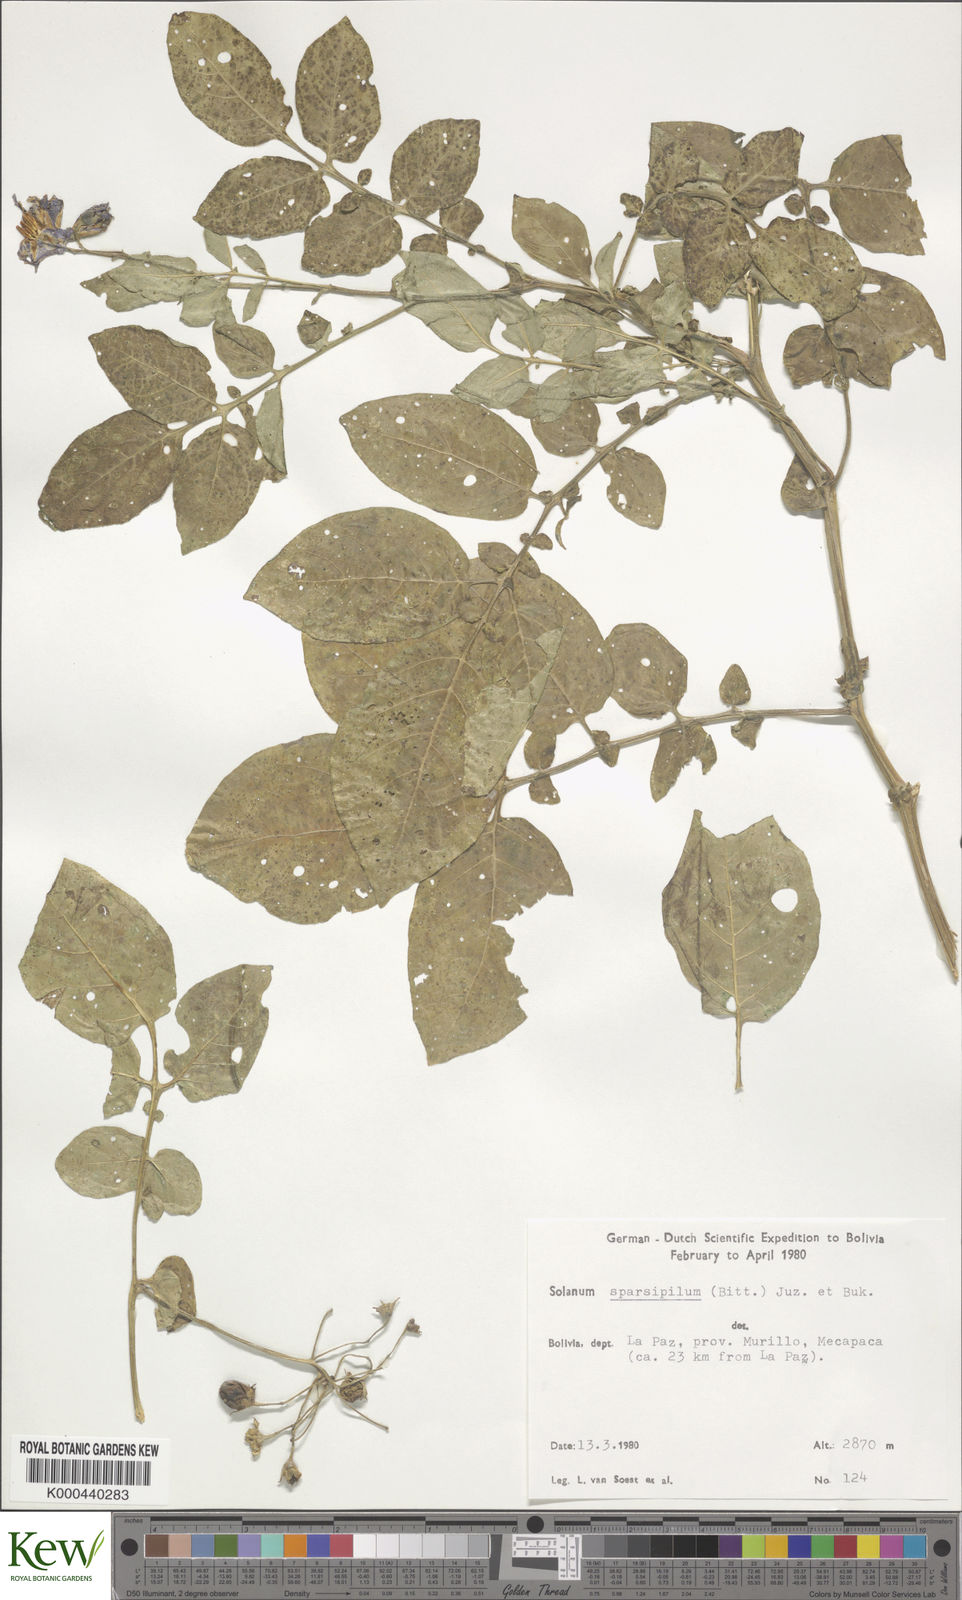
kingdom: Plantae
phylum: Tracheophyta
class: Magnoliopsida
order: Solanales
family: Solanaceae
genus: Solanum
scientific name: Solanum brevicaule
